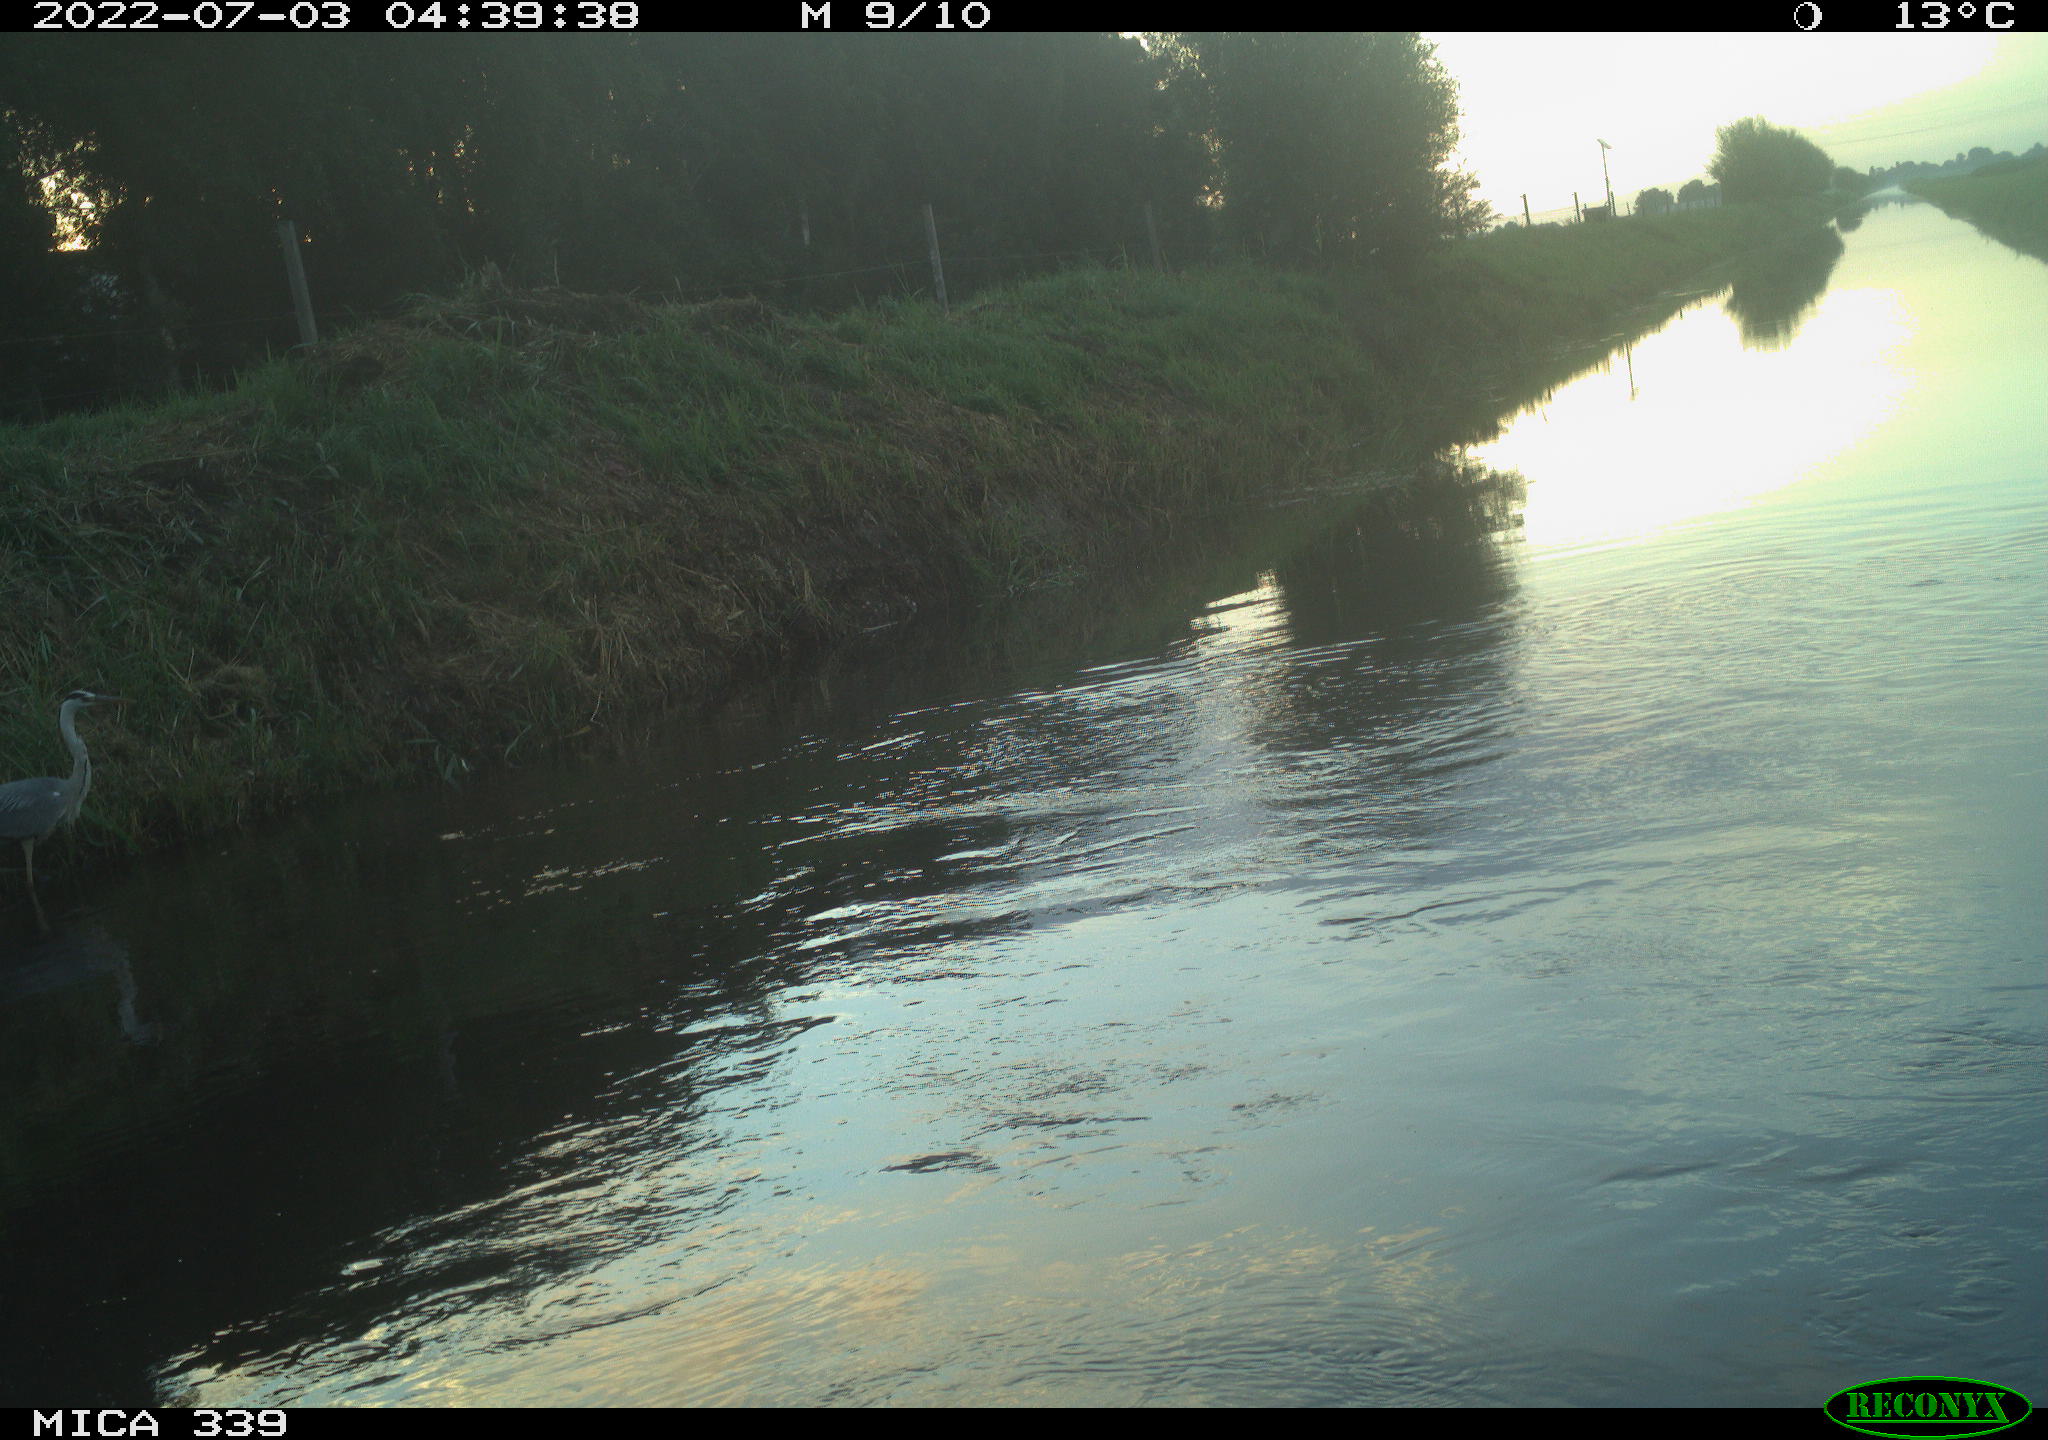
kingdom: Animalia
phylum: Chordata
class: Aves
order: Pelecaniformes
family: Ardeidae
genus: Ardea
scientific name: Ardea cinerea
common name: Grey heron
